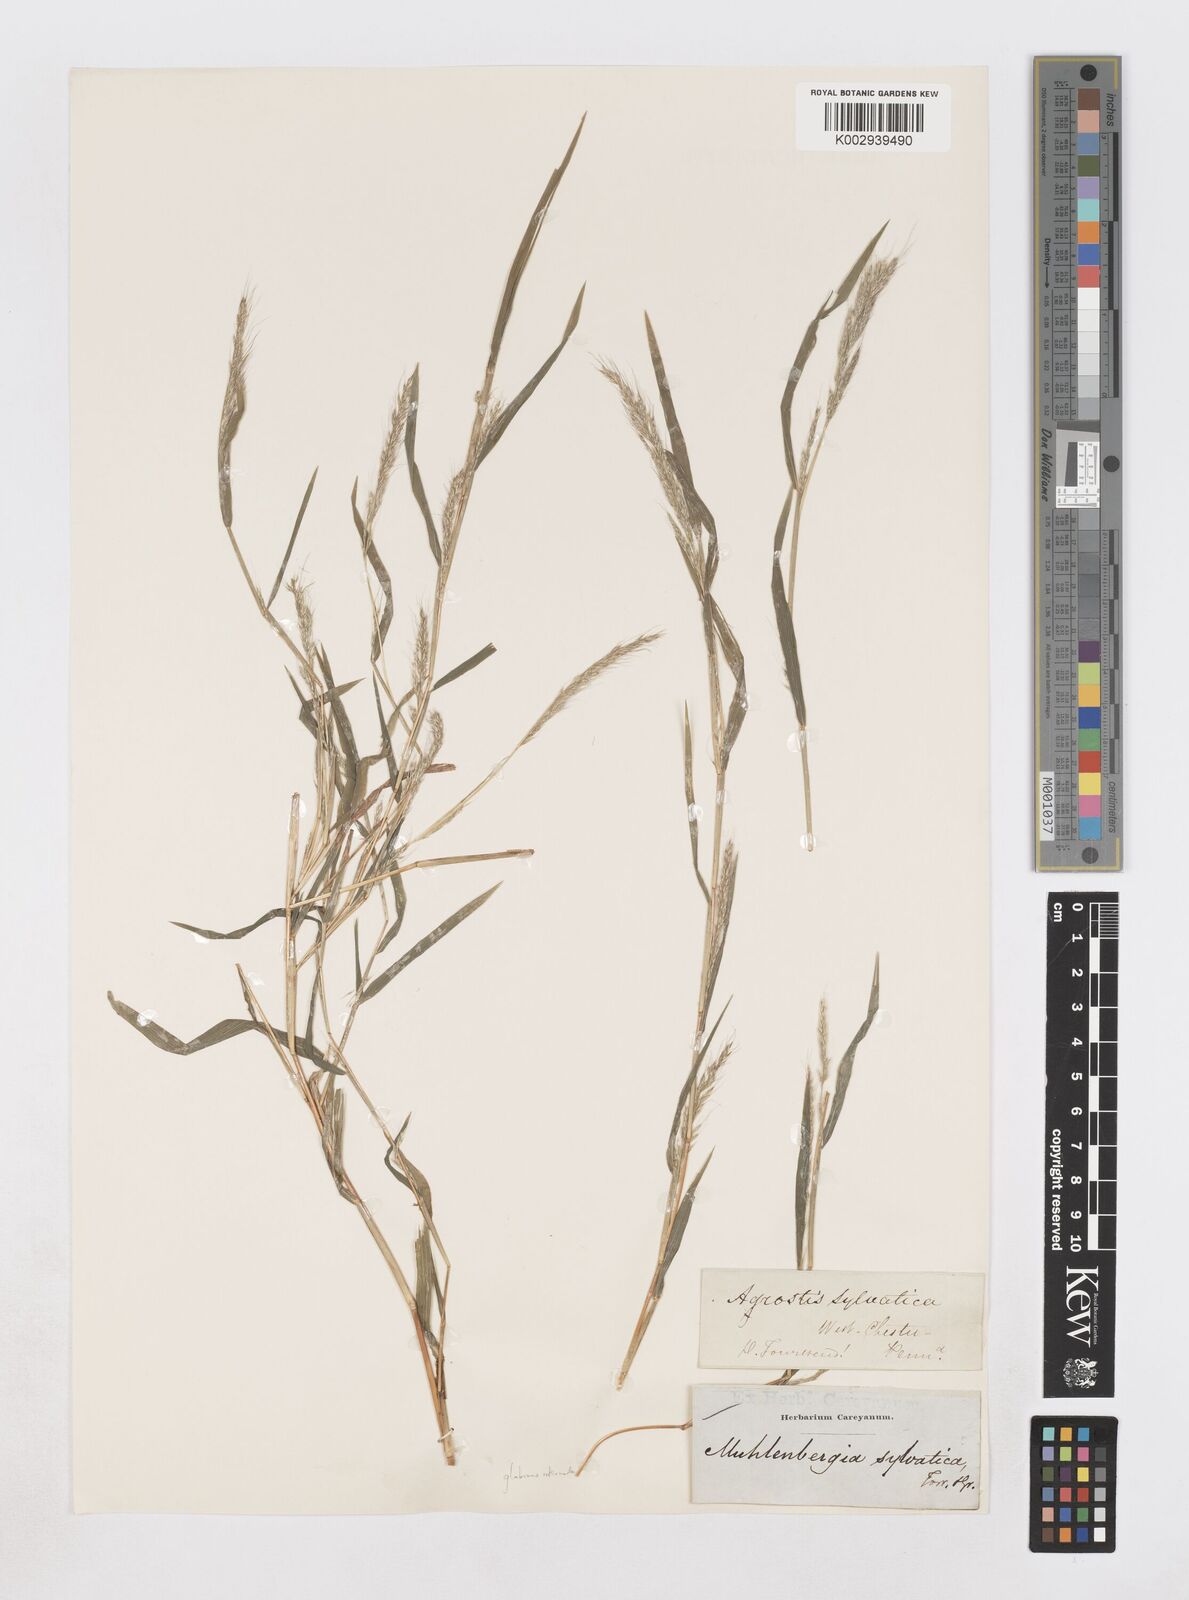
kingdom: Plantae
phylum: Tracheophyta
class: Liliopsida
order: Poales
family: Poaceae
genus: Muhlenbergia
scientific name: Muhlenbergia sylvatica
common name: Woodland muhly
